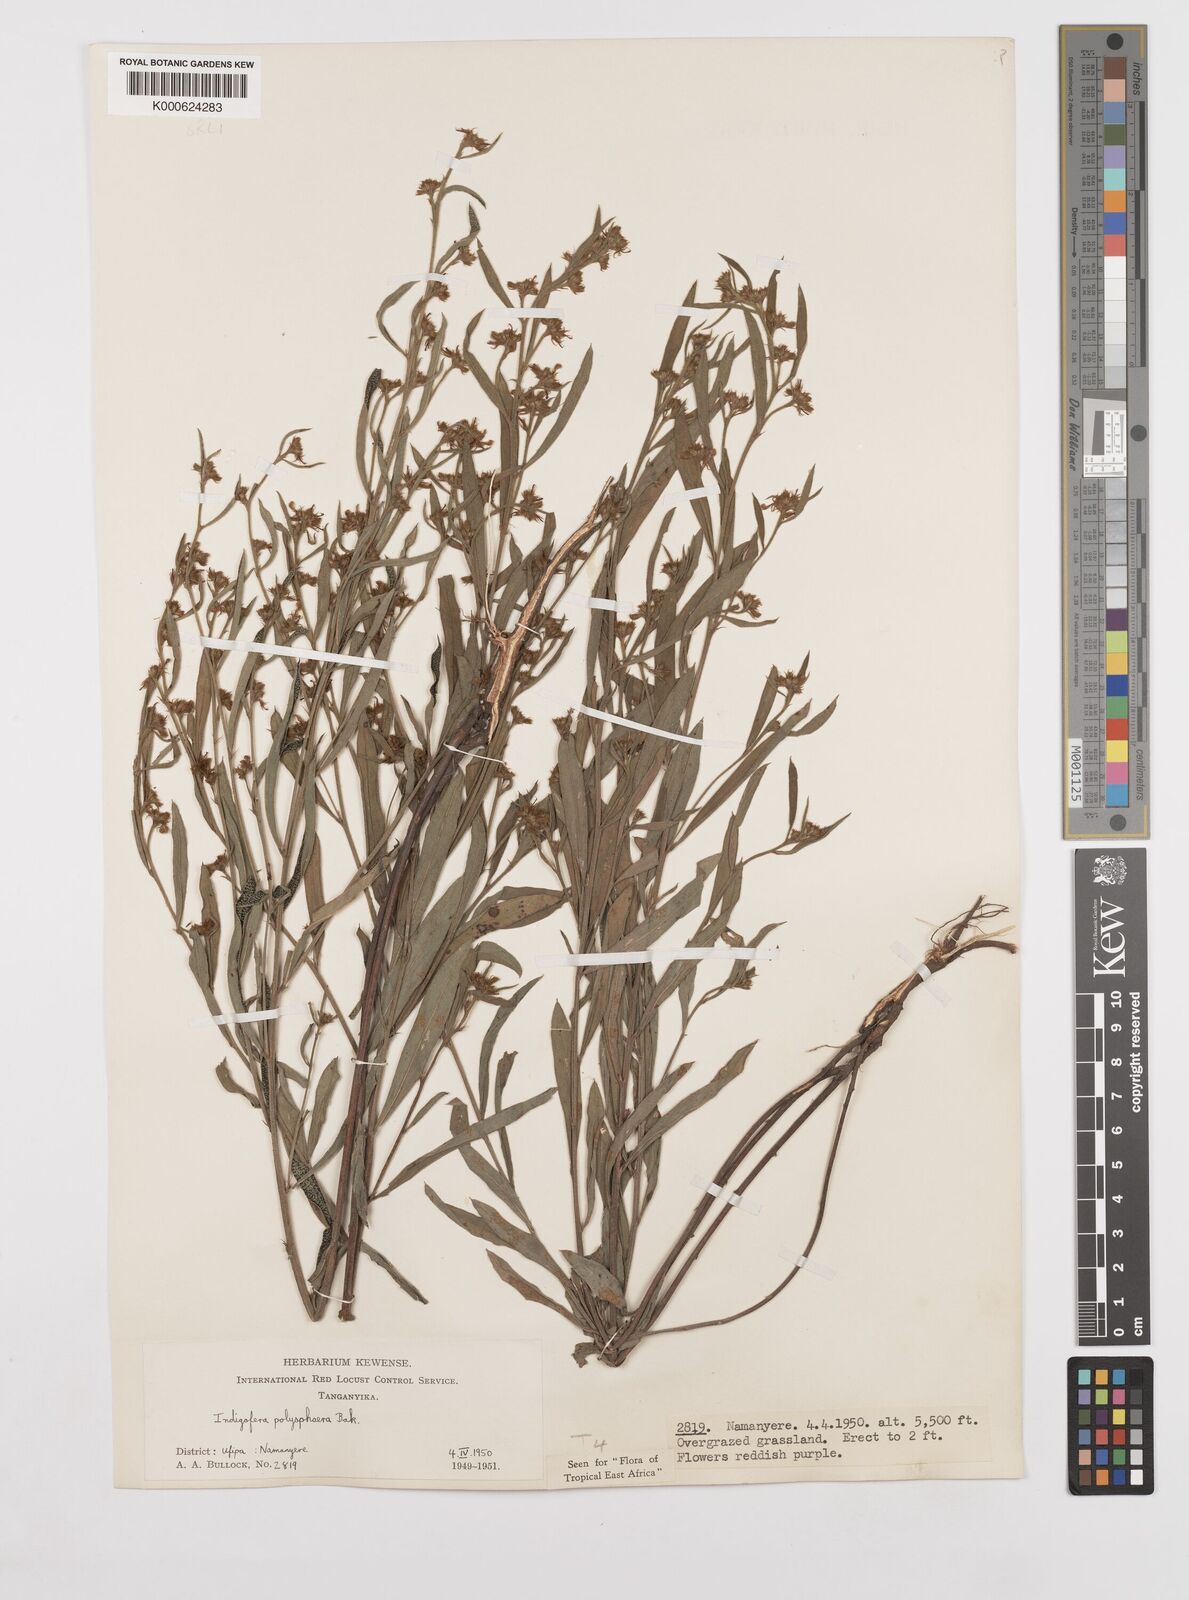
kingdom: Plantae
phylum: Tracheophyta
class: Magnoliopsida
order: Fabales
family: Fabaceae
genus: Indigofera
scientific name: Indigofera polysphaera
